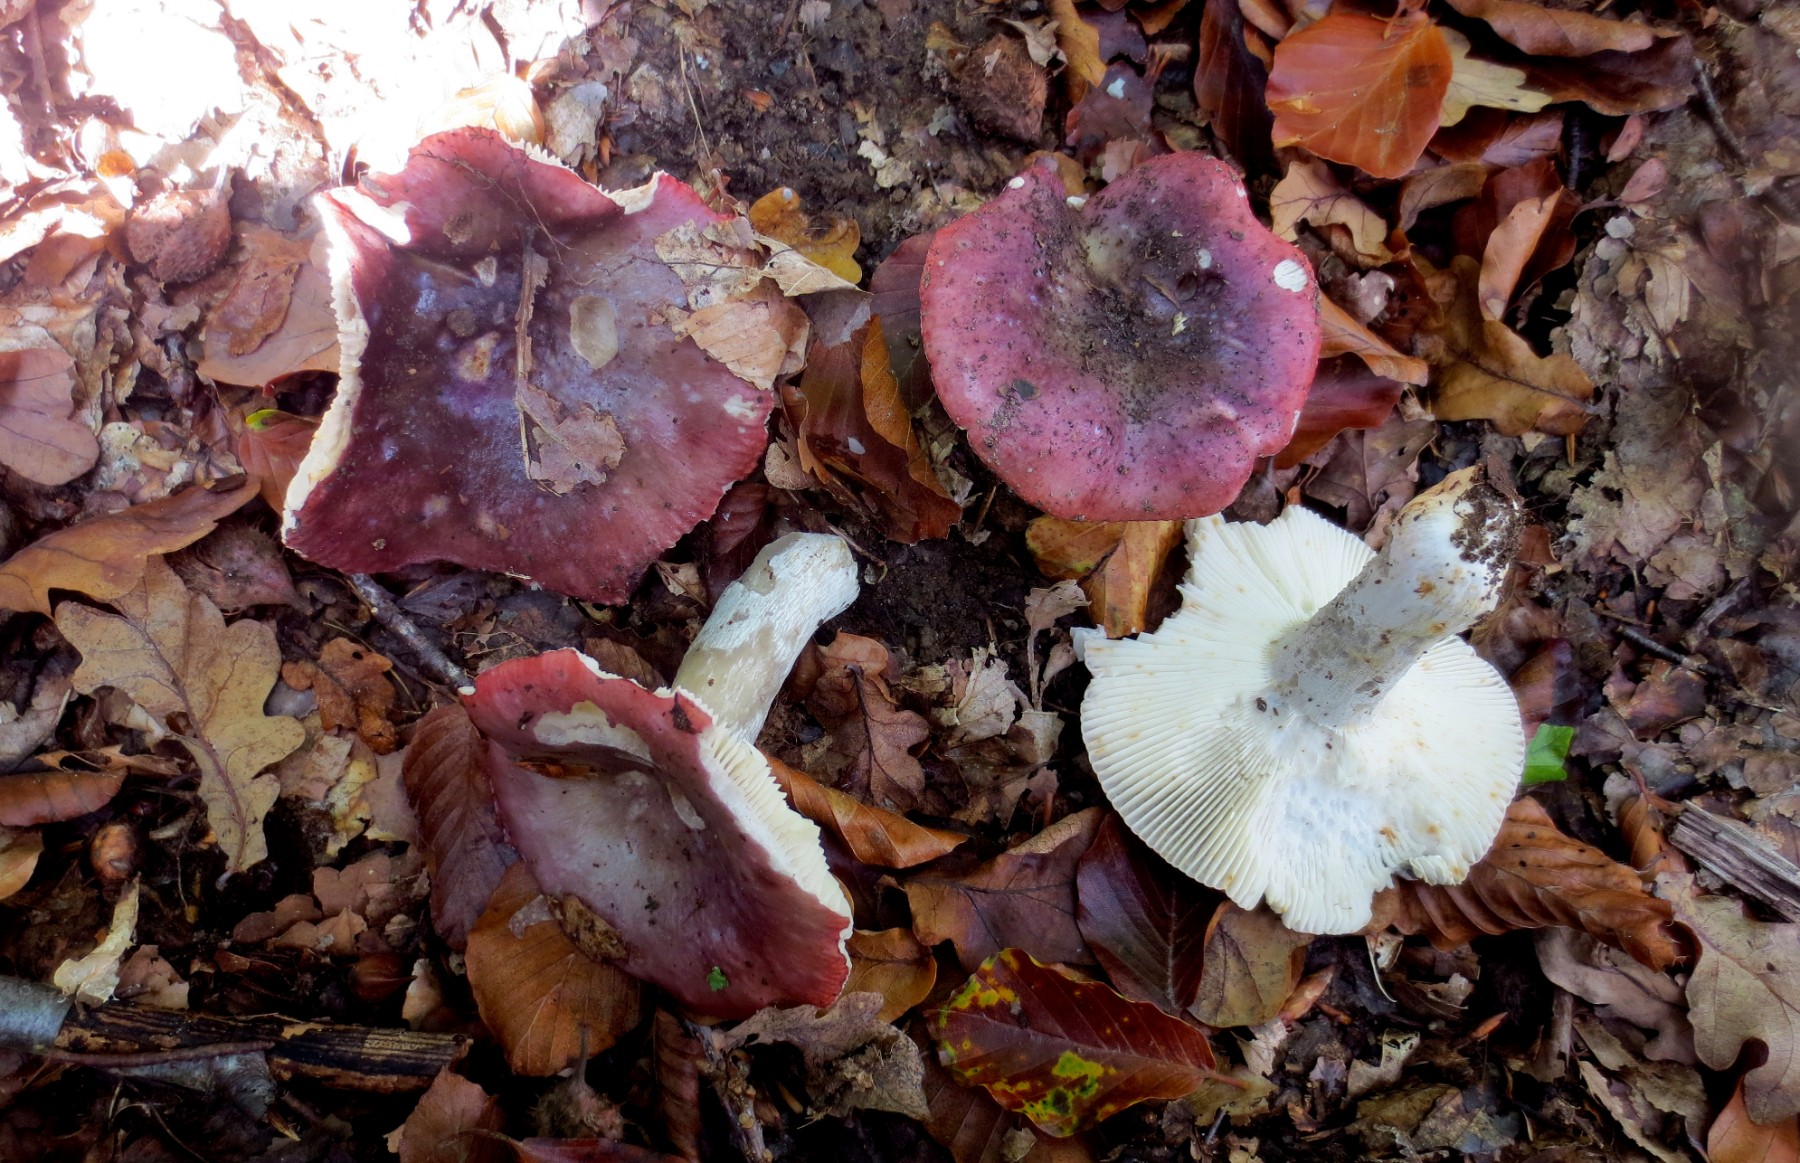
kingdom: Fungi
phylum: Basidiomycota
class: Agaricomycetes
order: Russulales
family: Russulaceae
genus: Russula
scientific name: Russula atropurpurea
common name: purpurbroget skørhat
